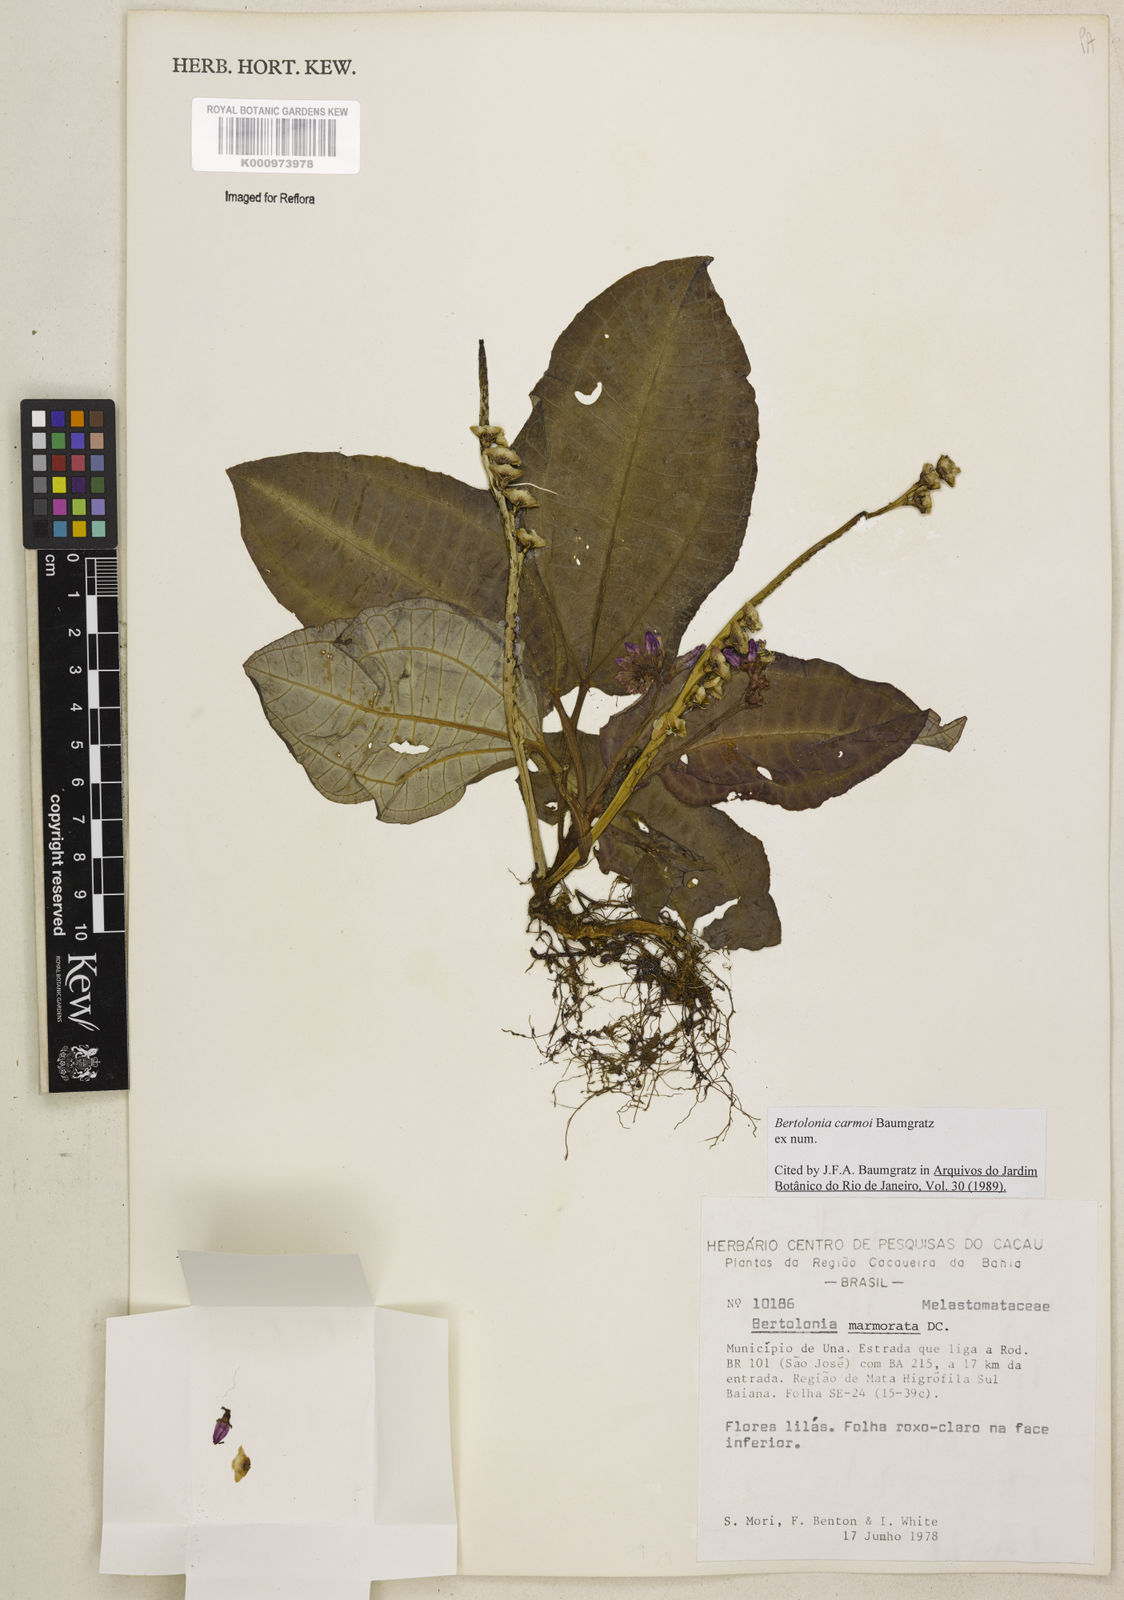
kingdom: Plantae
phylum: Tracheophyta
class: Magnoliopsida
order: Myrtales
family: Melastomataceae
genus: Bertolonia
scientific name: Bertolonia carmoi
